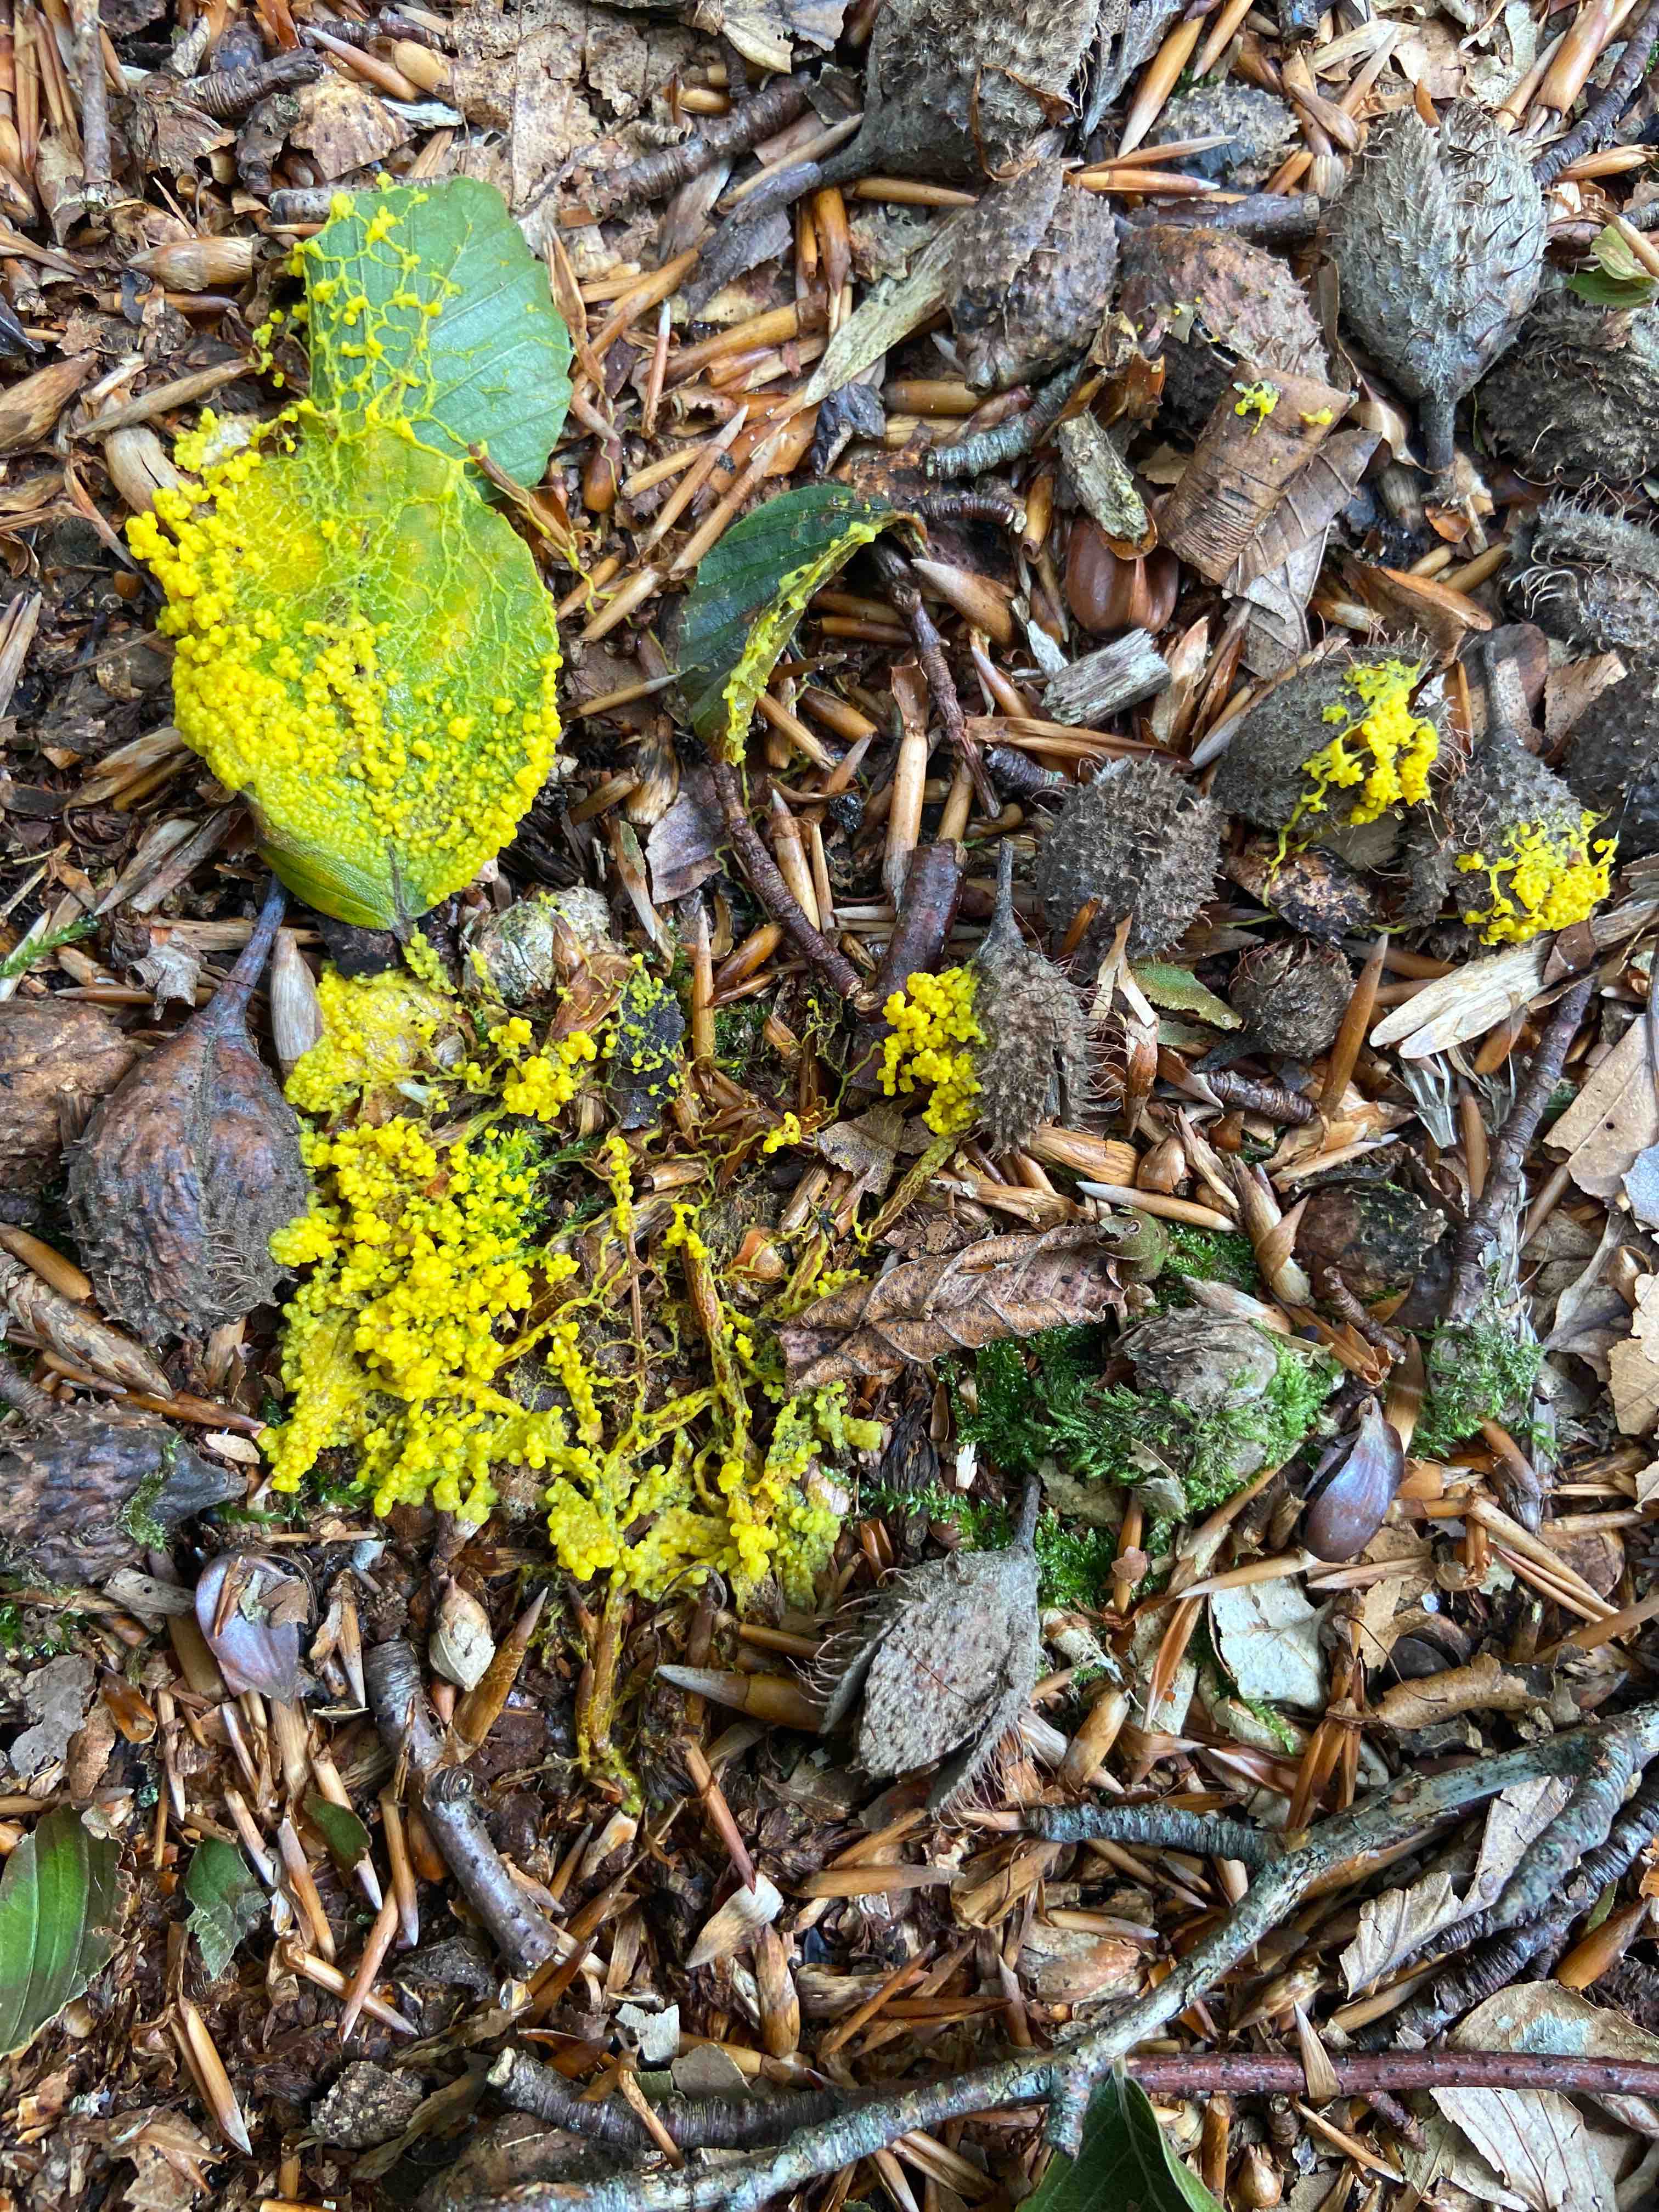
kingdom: Protozoa
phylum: Mycetozoa
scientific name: Mycetozoa
